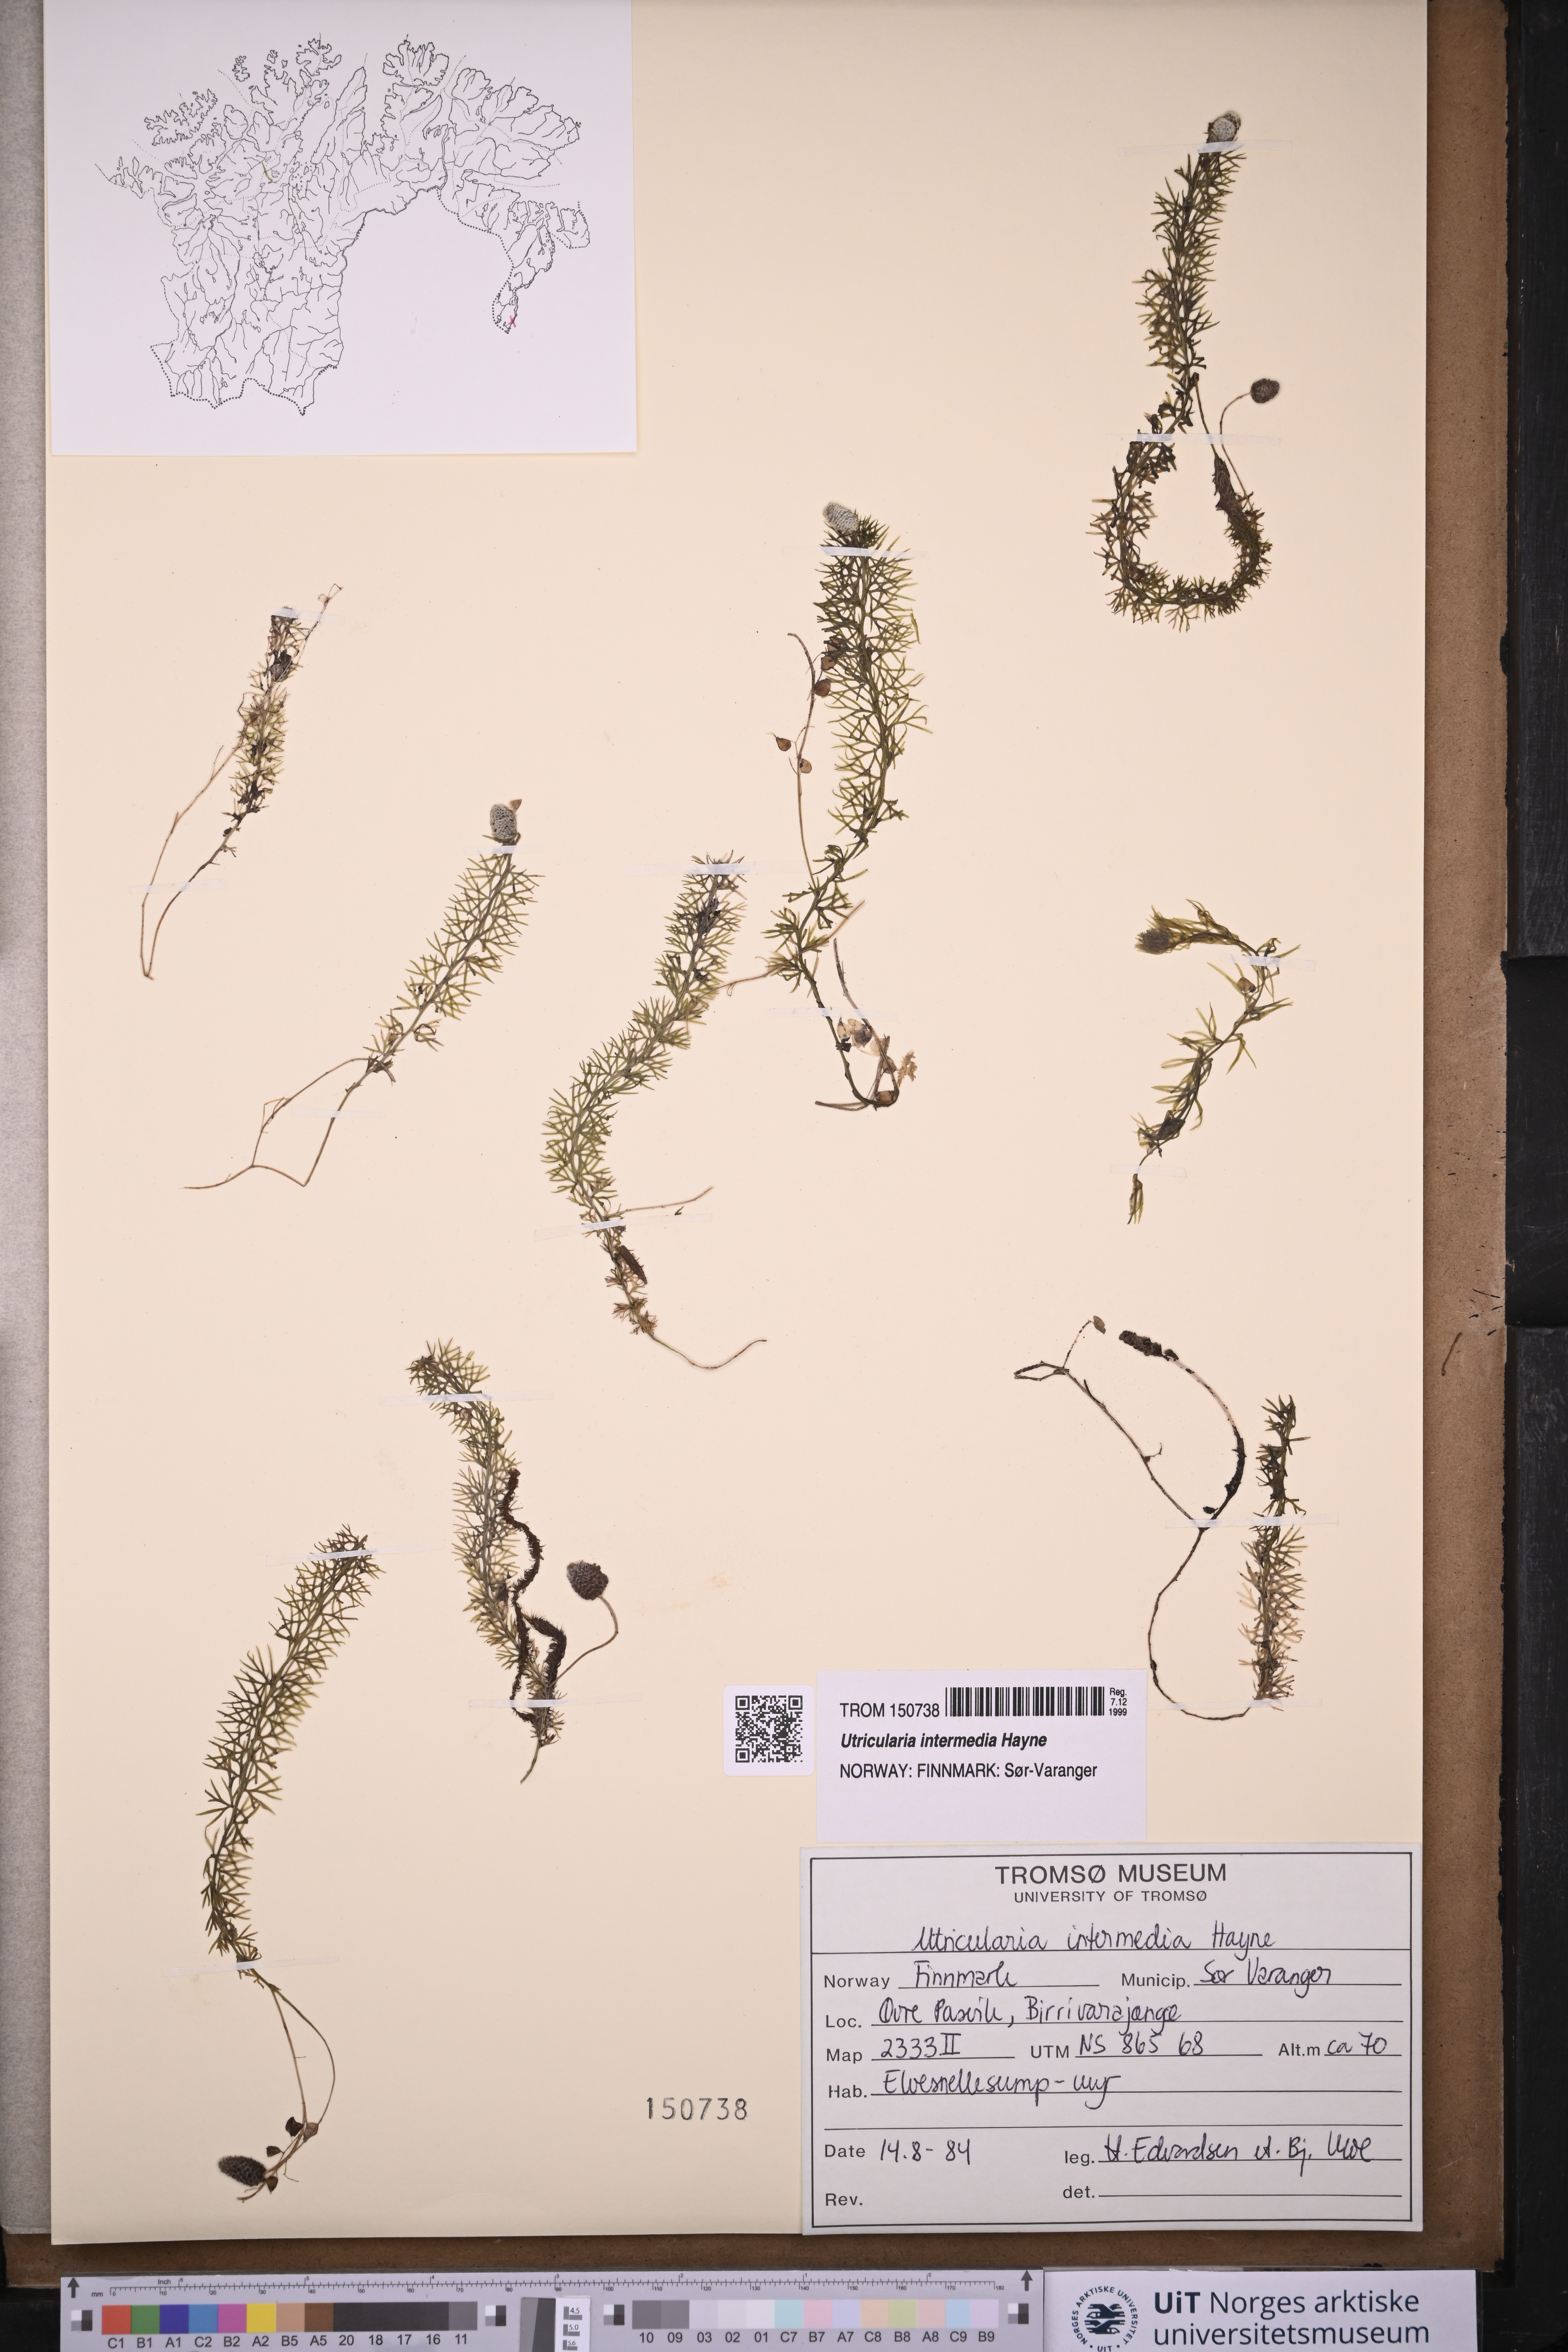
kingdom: Plantae
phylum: Tracheophyta
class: Magnoliopsida
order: Lamiales
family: Lentibulariaceae
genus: Utricularia
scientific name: Utricularia intermedia
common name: Intermediate bladderwort
